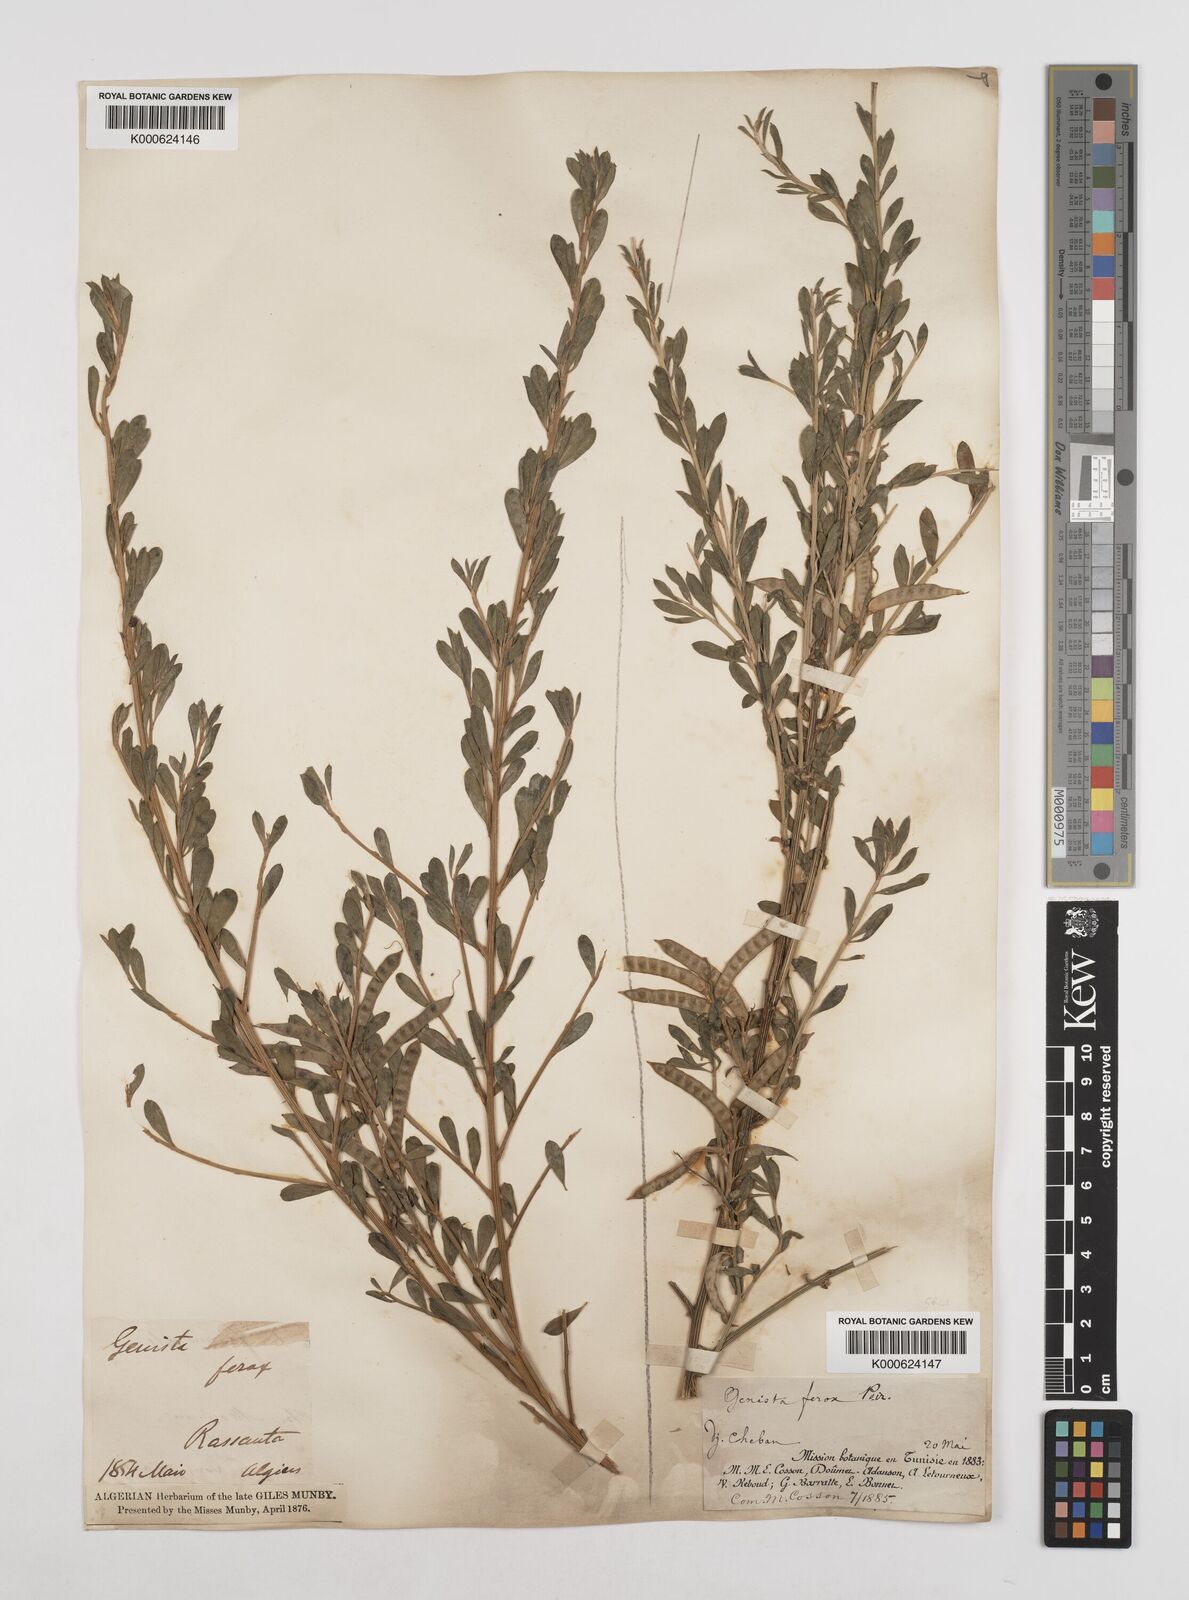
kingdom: Plantae
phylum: Tracheophyta
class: Magnoliopsida
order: Fabales
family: Fabaceae
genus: Genista
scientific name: Genista ferox
